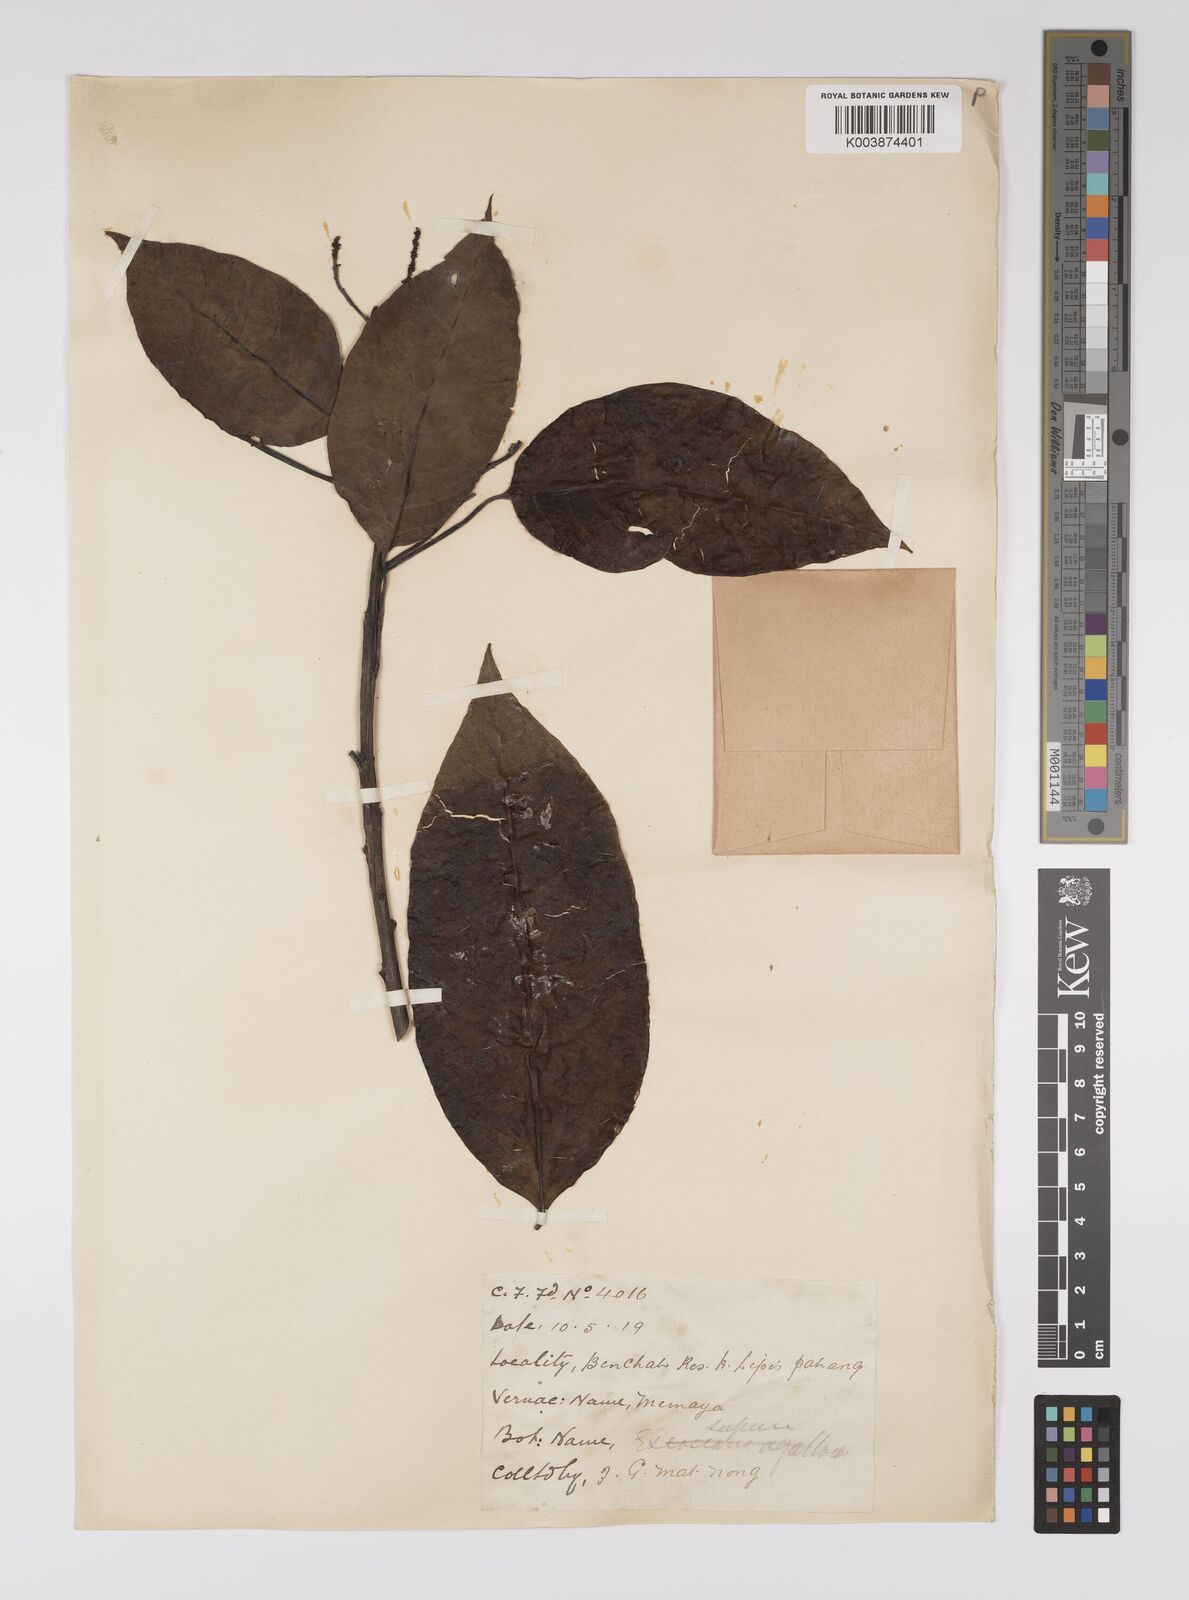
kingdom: Plantae
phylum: Tracheophyta
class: Magnoliopsida
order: Malpighiales
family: Euphorbiaceae
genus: Balakata
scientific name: Balakata baccata
